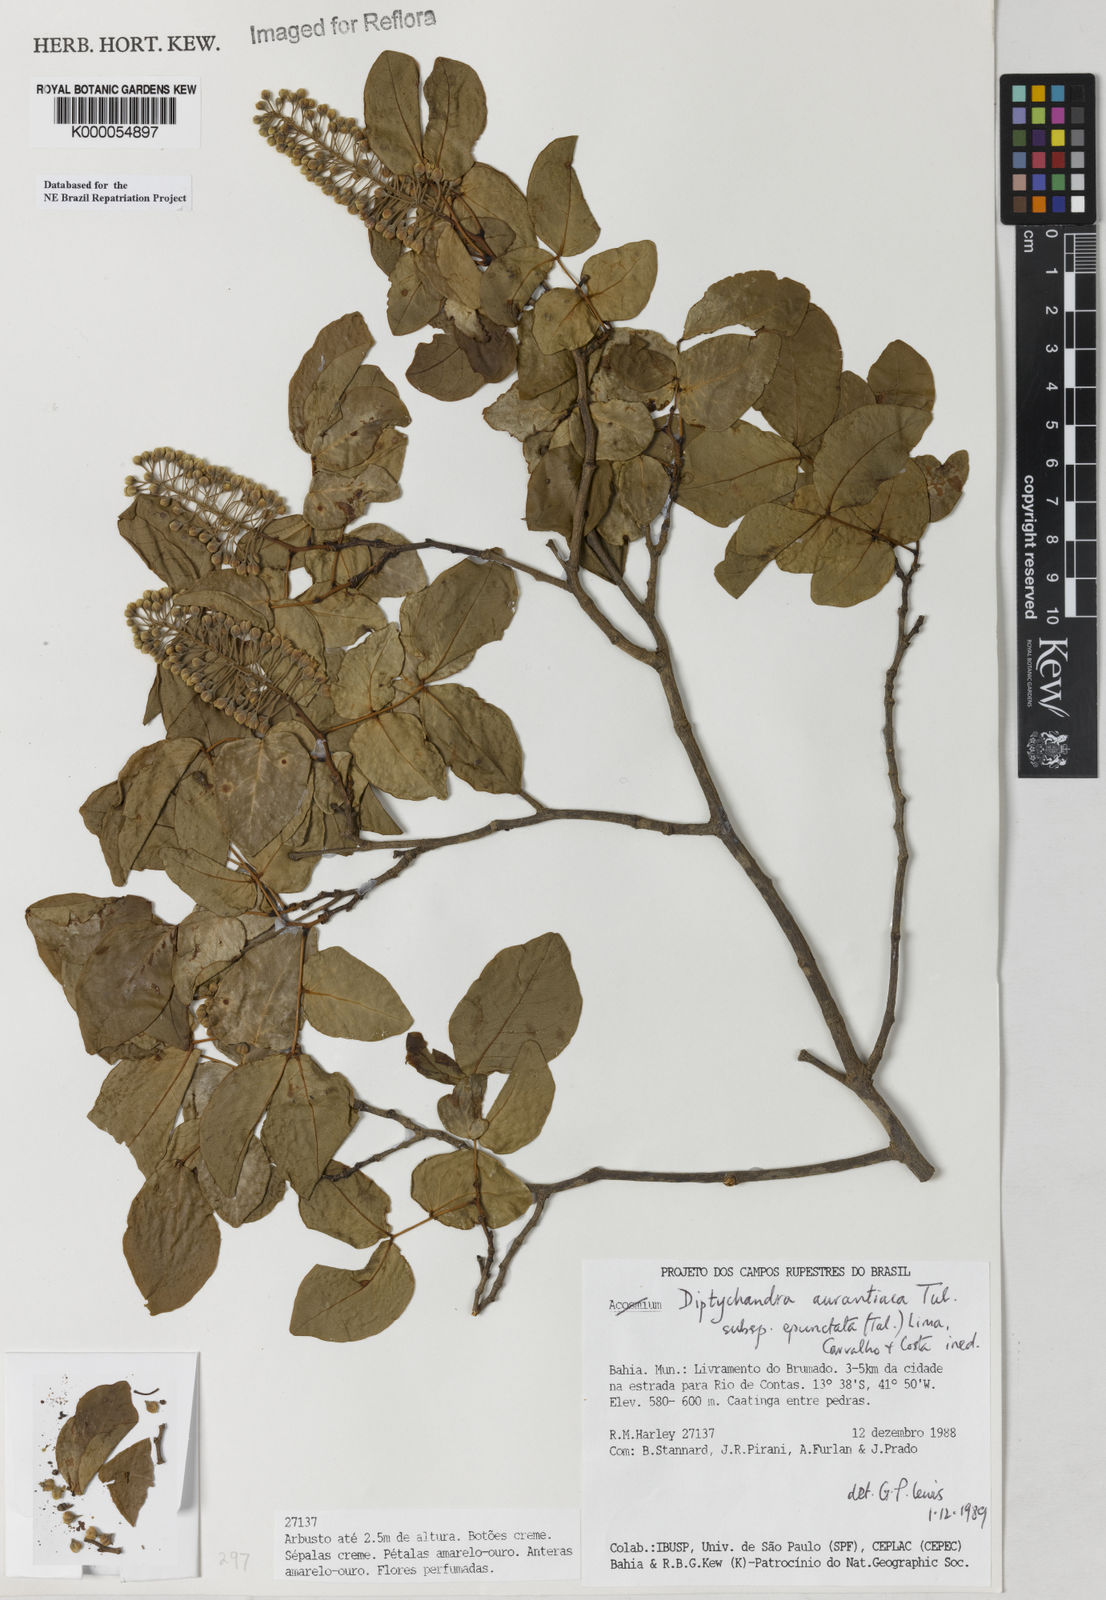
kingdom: Plantae
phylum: Tracheophyta
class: Magnoliopsida
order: Fabales
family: Fabaceae
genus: Diptychandra
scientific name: Diptychandra aurantiaca
